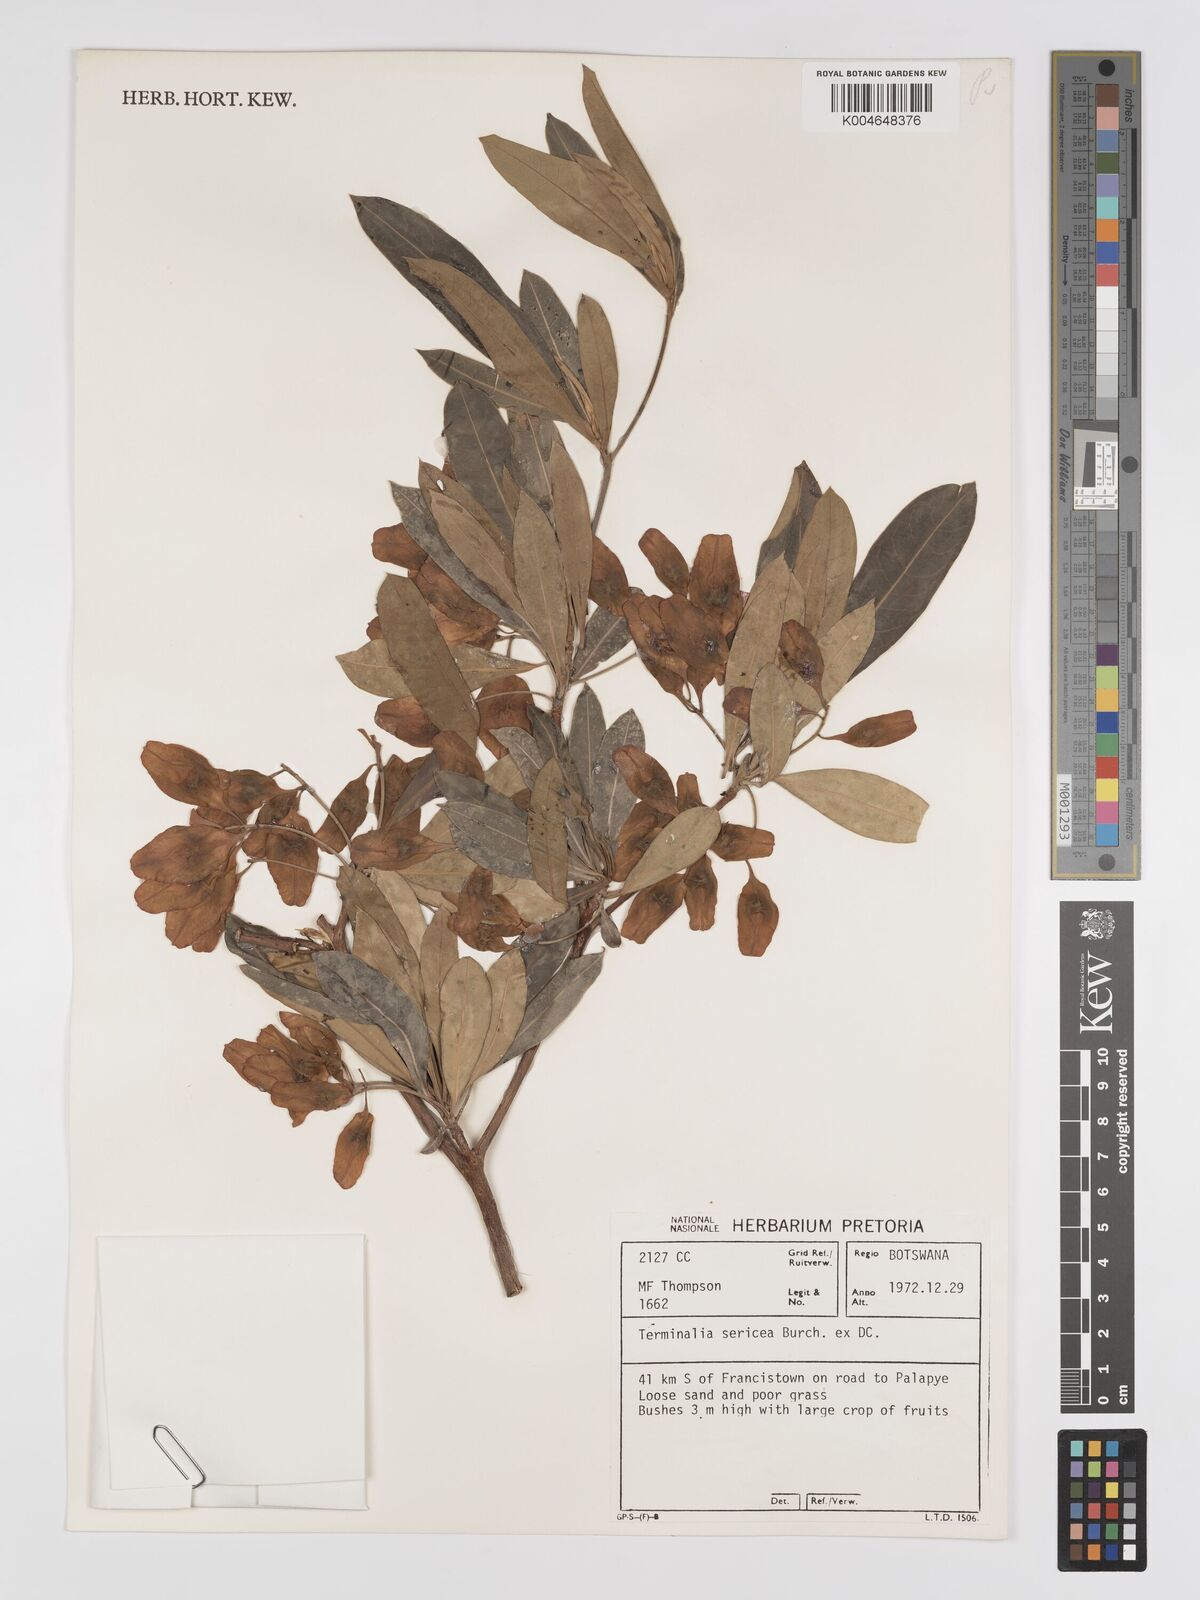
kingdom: Plantae
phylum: Tracheophyta
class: Magnoliopsida
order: Myrtales
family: Combretaceae
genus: Terminalia
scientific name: Terminalia
